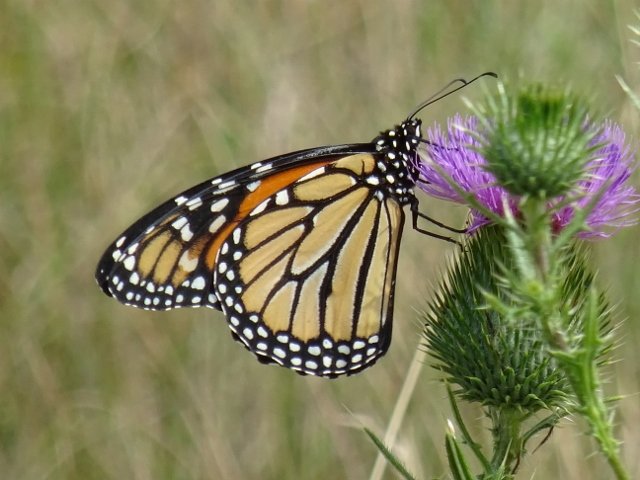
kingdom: Animalia
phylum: Arthropoda
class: Insecta
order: Lepidoptera
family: Nymphalidae
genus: Danaus
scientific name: Danaus plexippus
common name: Monarch
